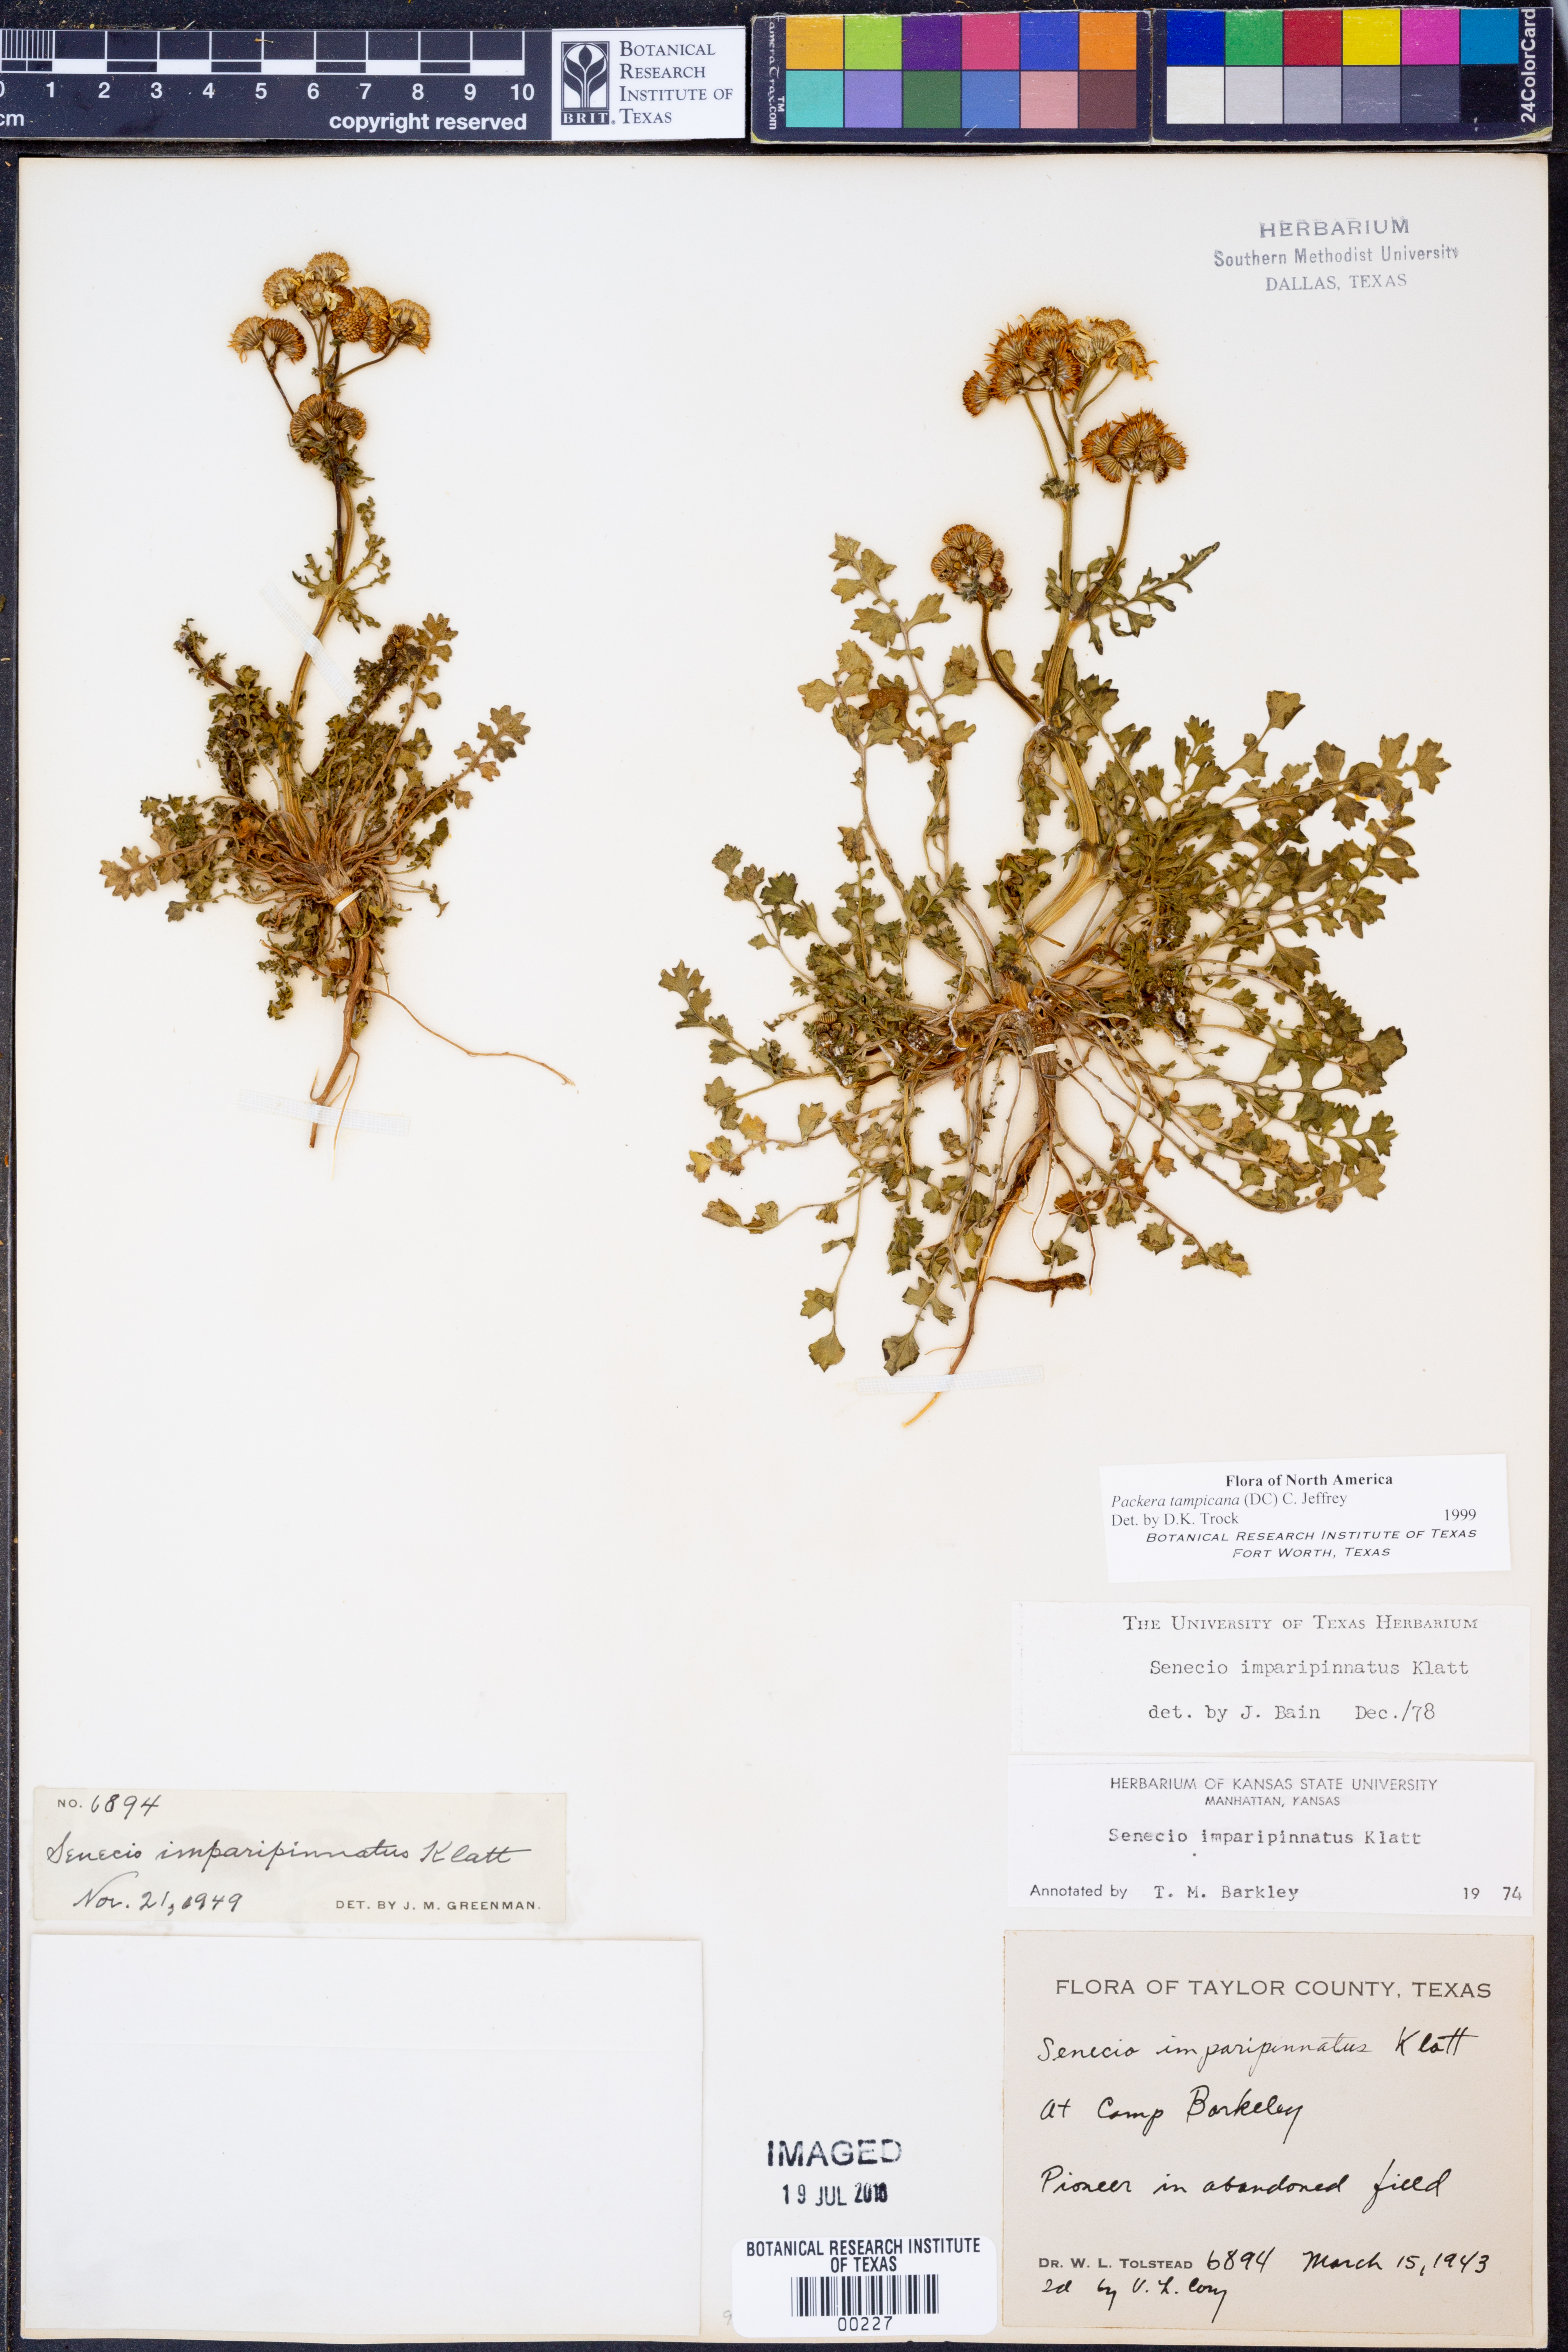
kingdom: Plantae
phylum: Tracheophyta
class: Magnoliopsida
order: Asterales
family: Asteraceae
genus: Packera
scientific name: Packera tampicana
